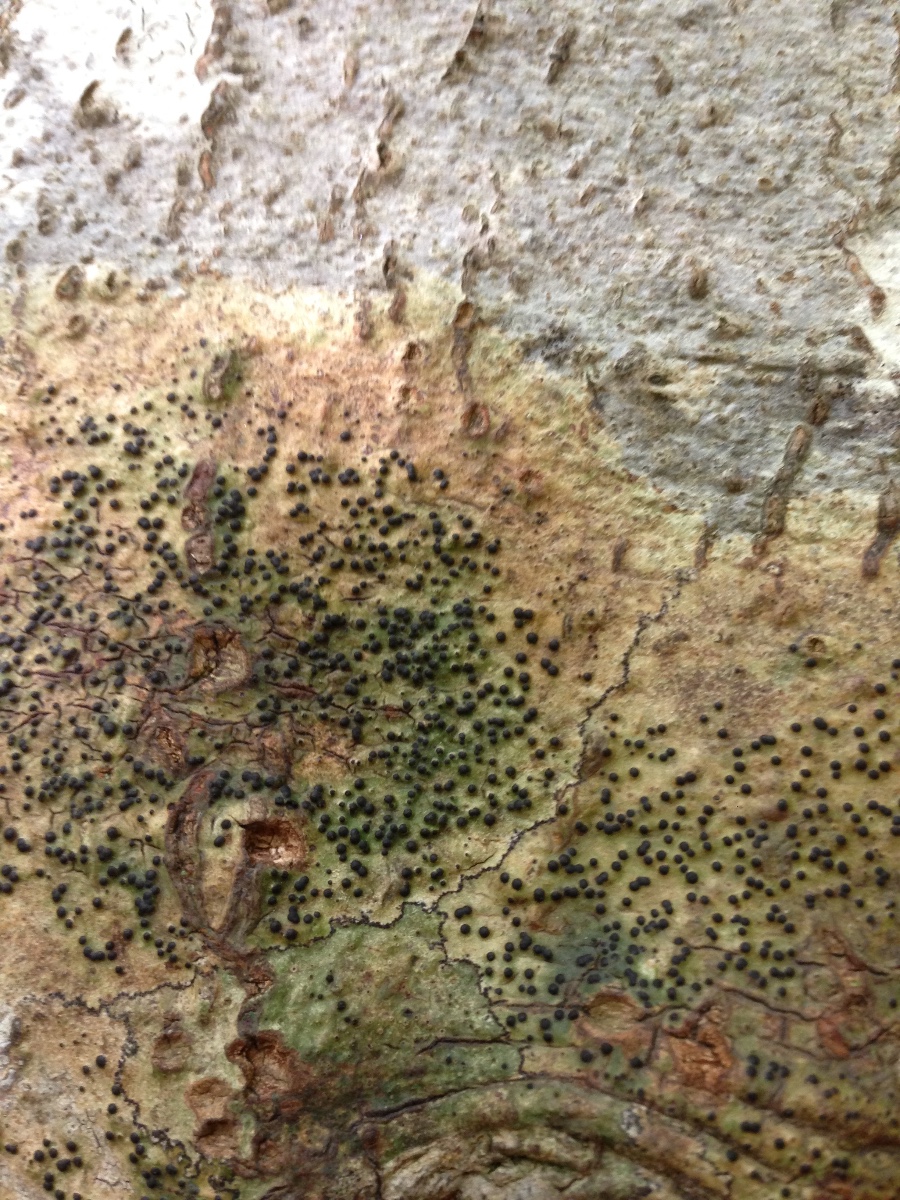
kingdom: Fungi
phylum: Ascomycota
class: Eurotiomycetes
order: Pyrenulales
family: Pyrenulaceae
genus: Pyrenula
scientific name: Pyrenula nitida
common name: glinsende kernelav
